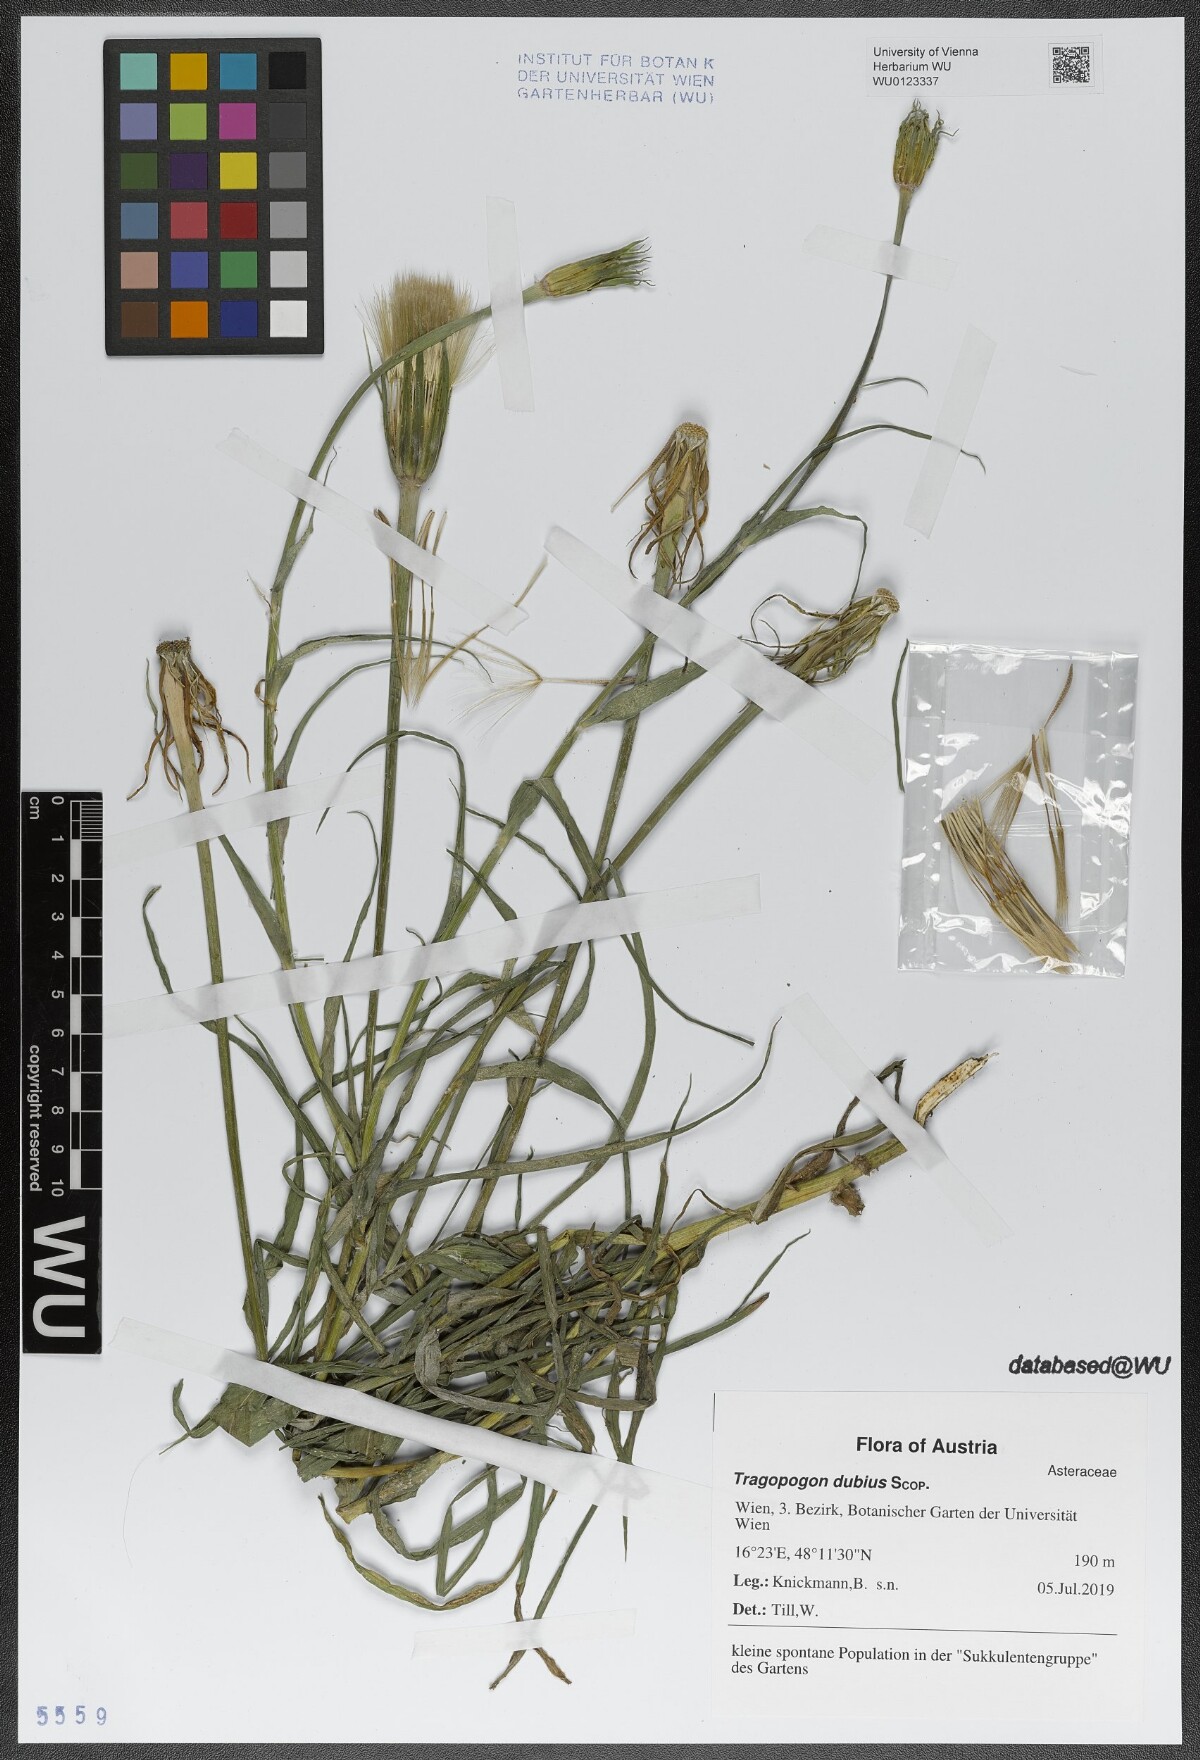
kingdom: Plantae
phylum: Tracheophyta
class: Magnoliopsida
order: Asterales
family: Asteraceae
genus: Tragopogon
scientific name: Tragopogon dubius
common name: Yellow salsify
